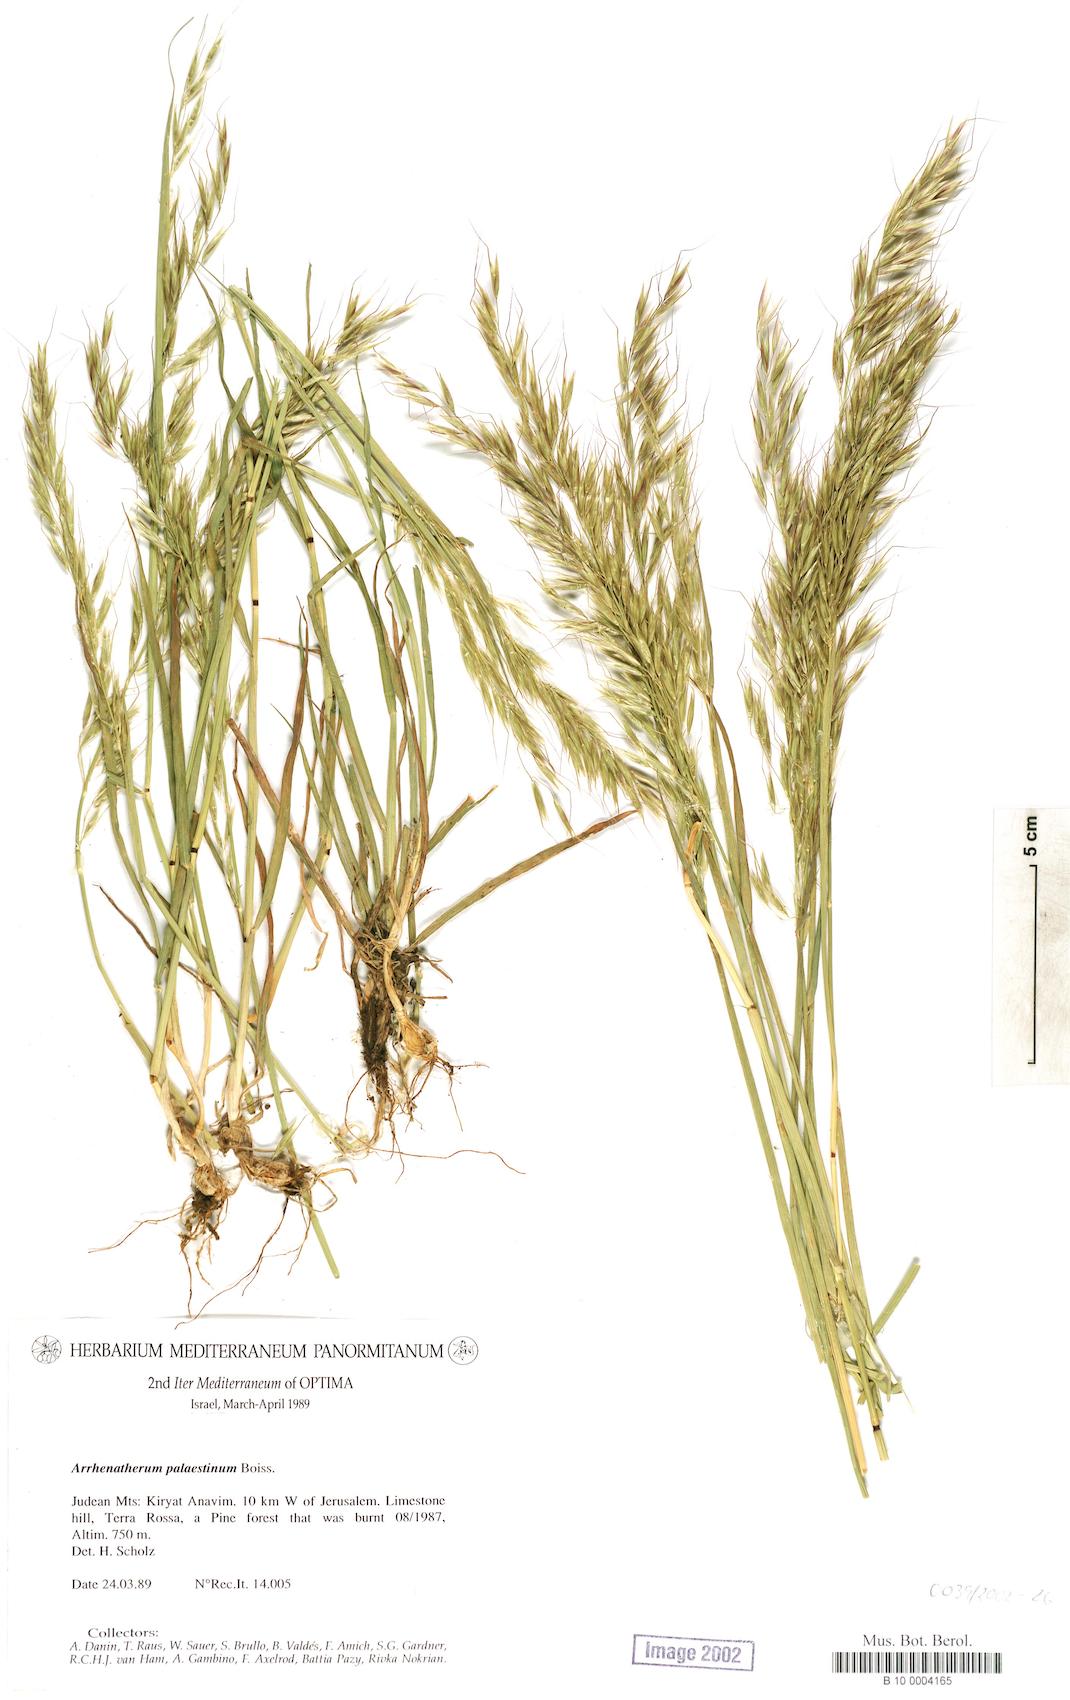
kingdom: Plantae
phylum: Tracheophyta
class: Liliopsida
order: Poales
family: Poaceae
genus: Arrhenatherum
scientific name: Arrhenatherum palaestinum
